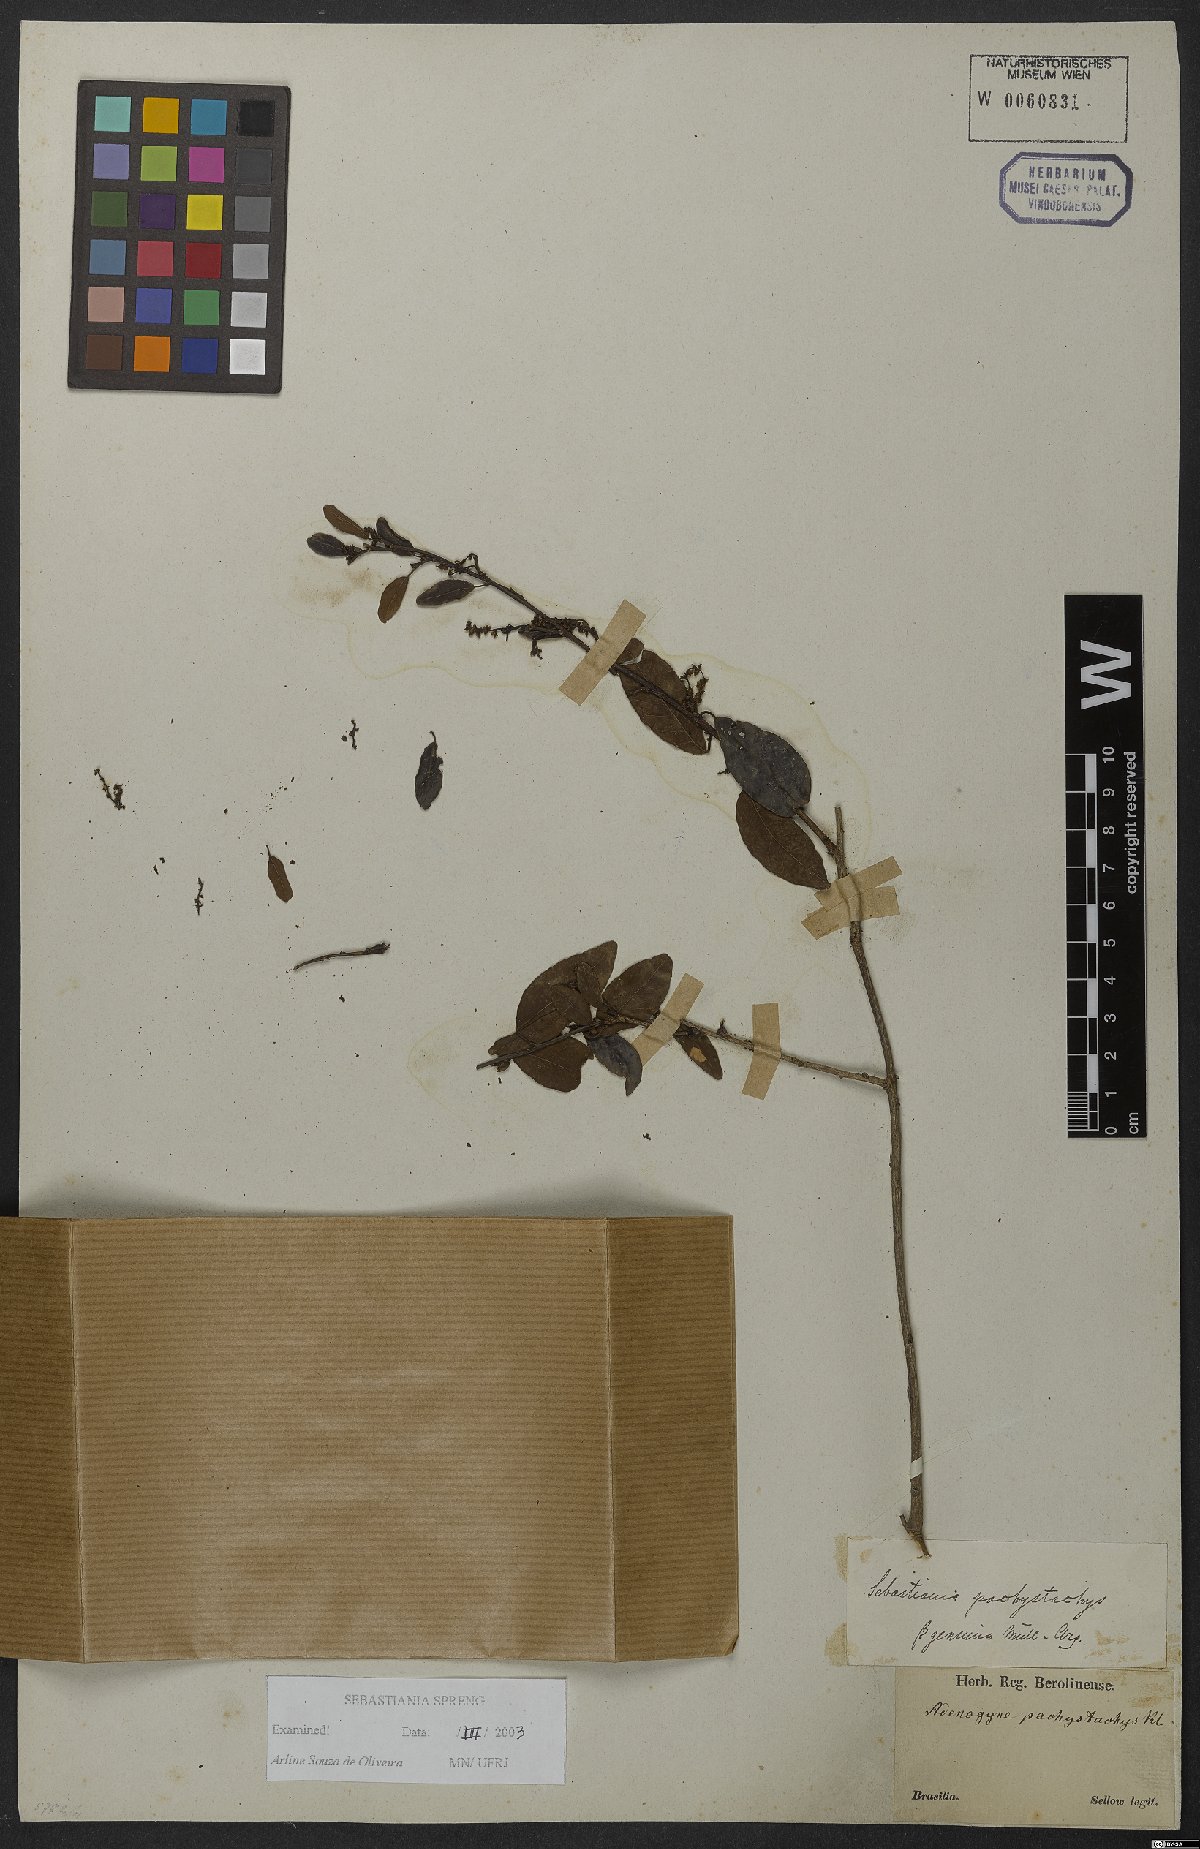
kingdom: Plantae
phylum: Tracheophyta
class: Magnoliopsida
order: Malpighiales
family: Euphorbiaceae
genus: Sebastiania
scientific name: Sebastiania klotzschiana
